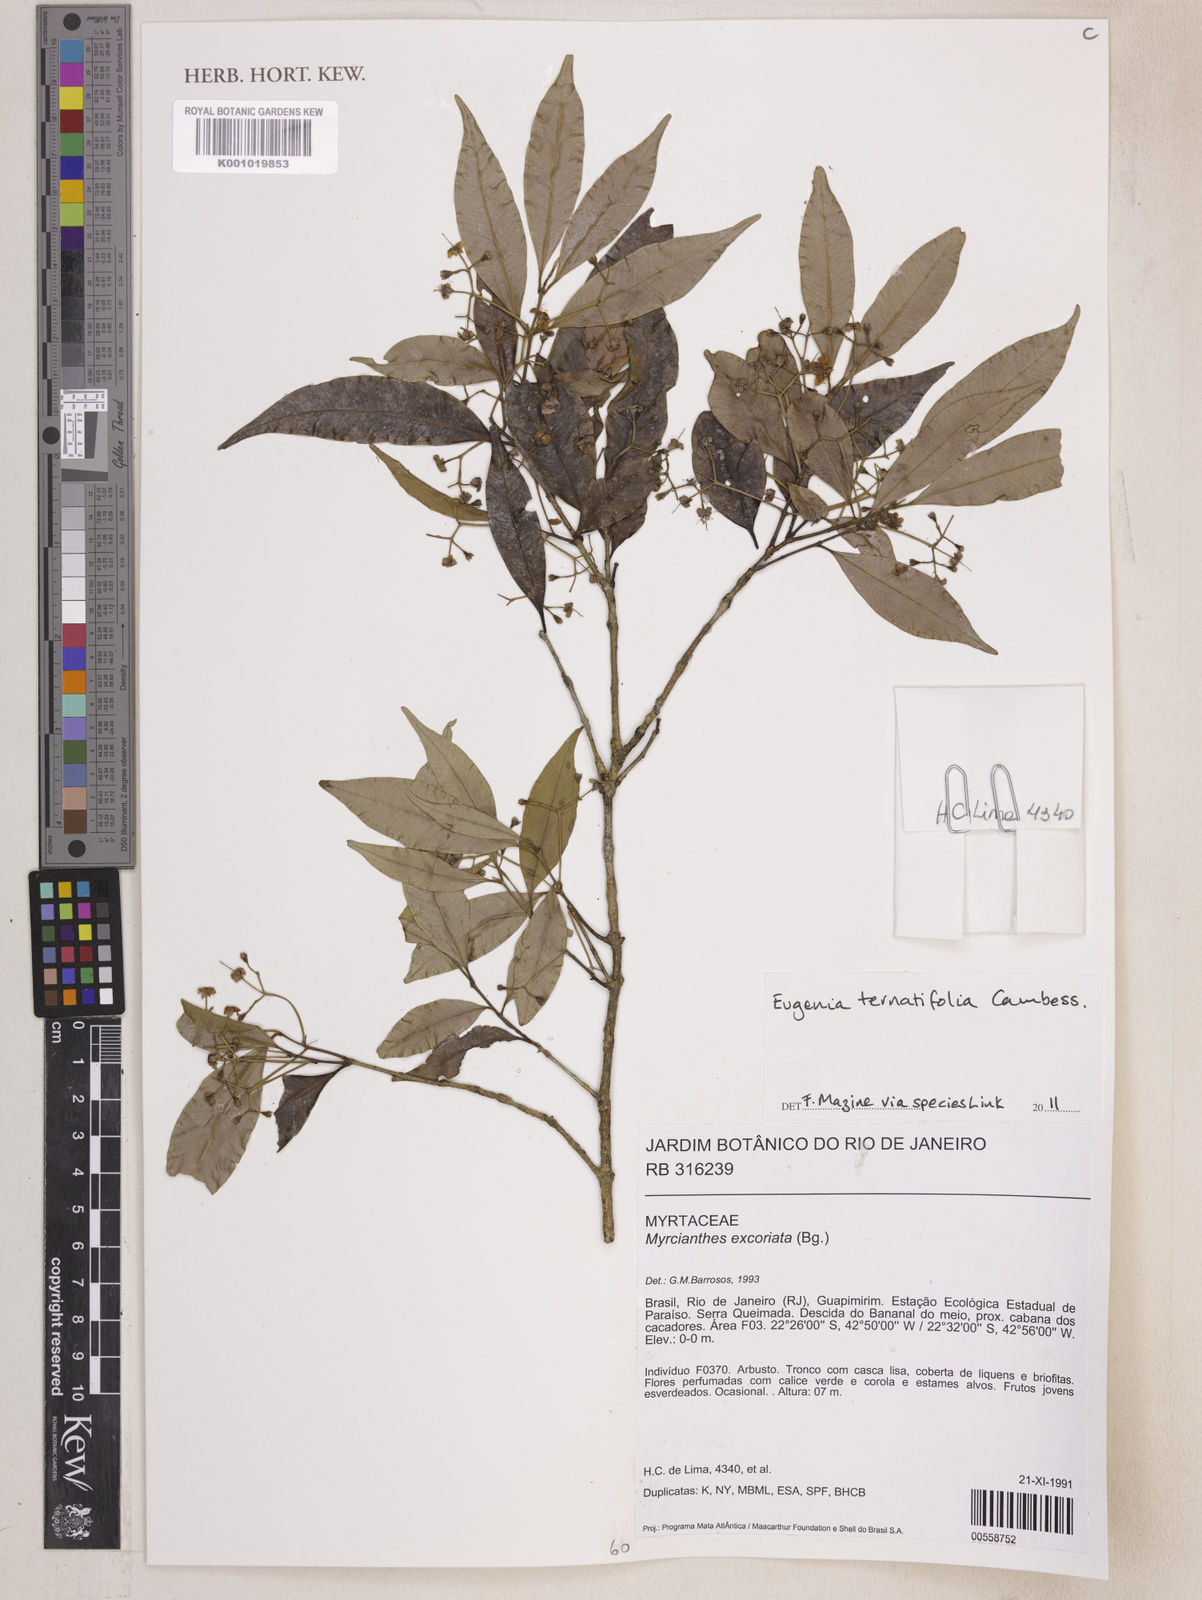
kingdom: Plantae
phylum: Tracheophyta
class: Magnoliopsida
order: Myrtales
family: Myrtaceae
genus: Eugenia
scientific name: Eugenia ternatifolia
